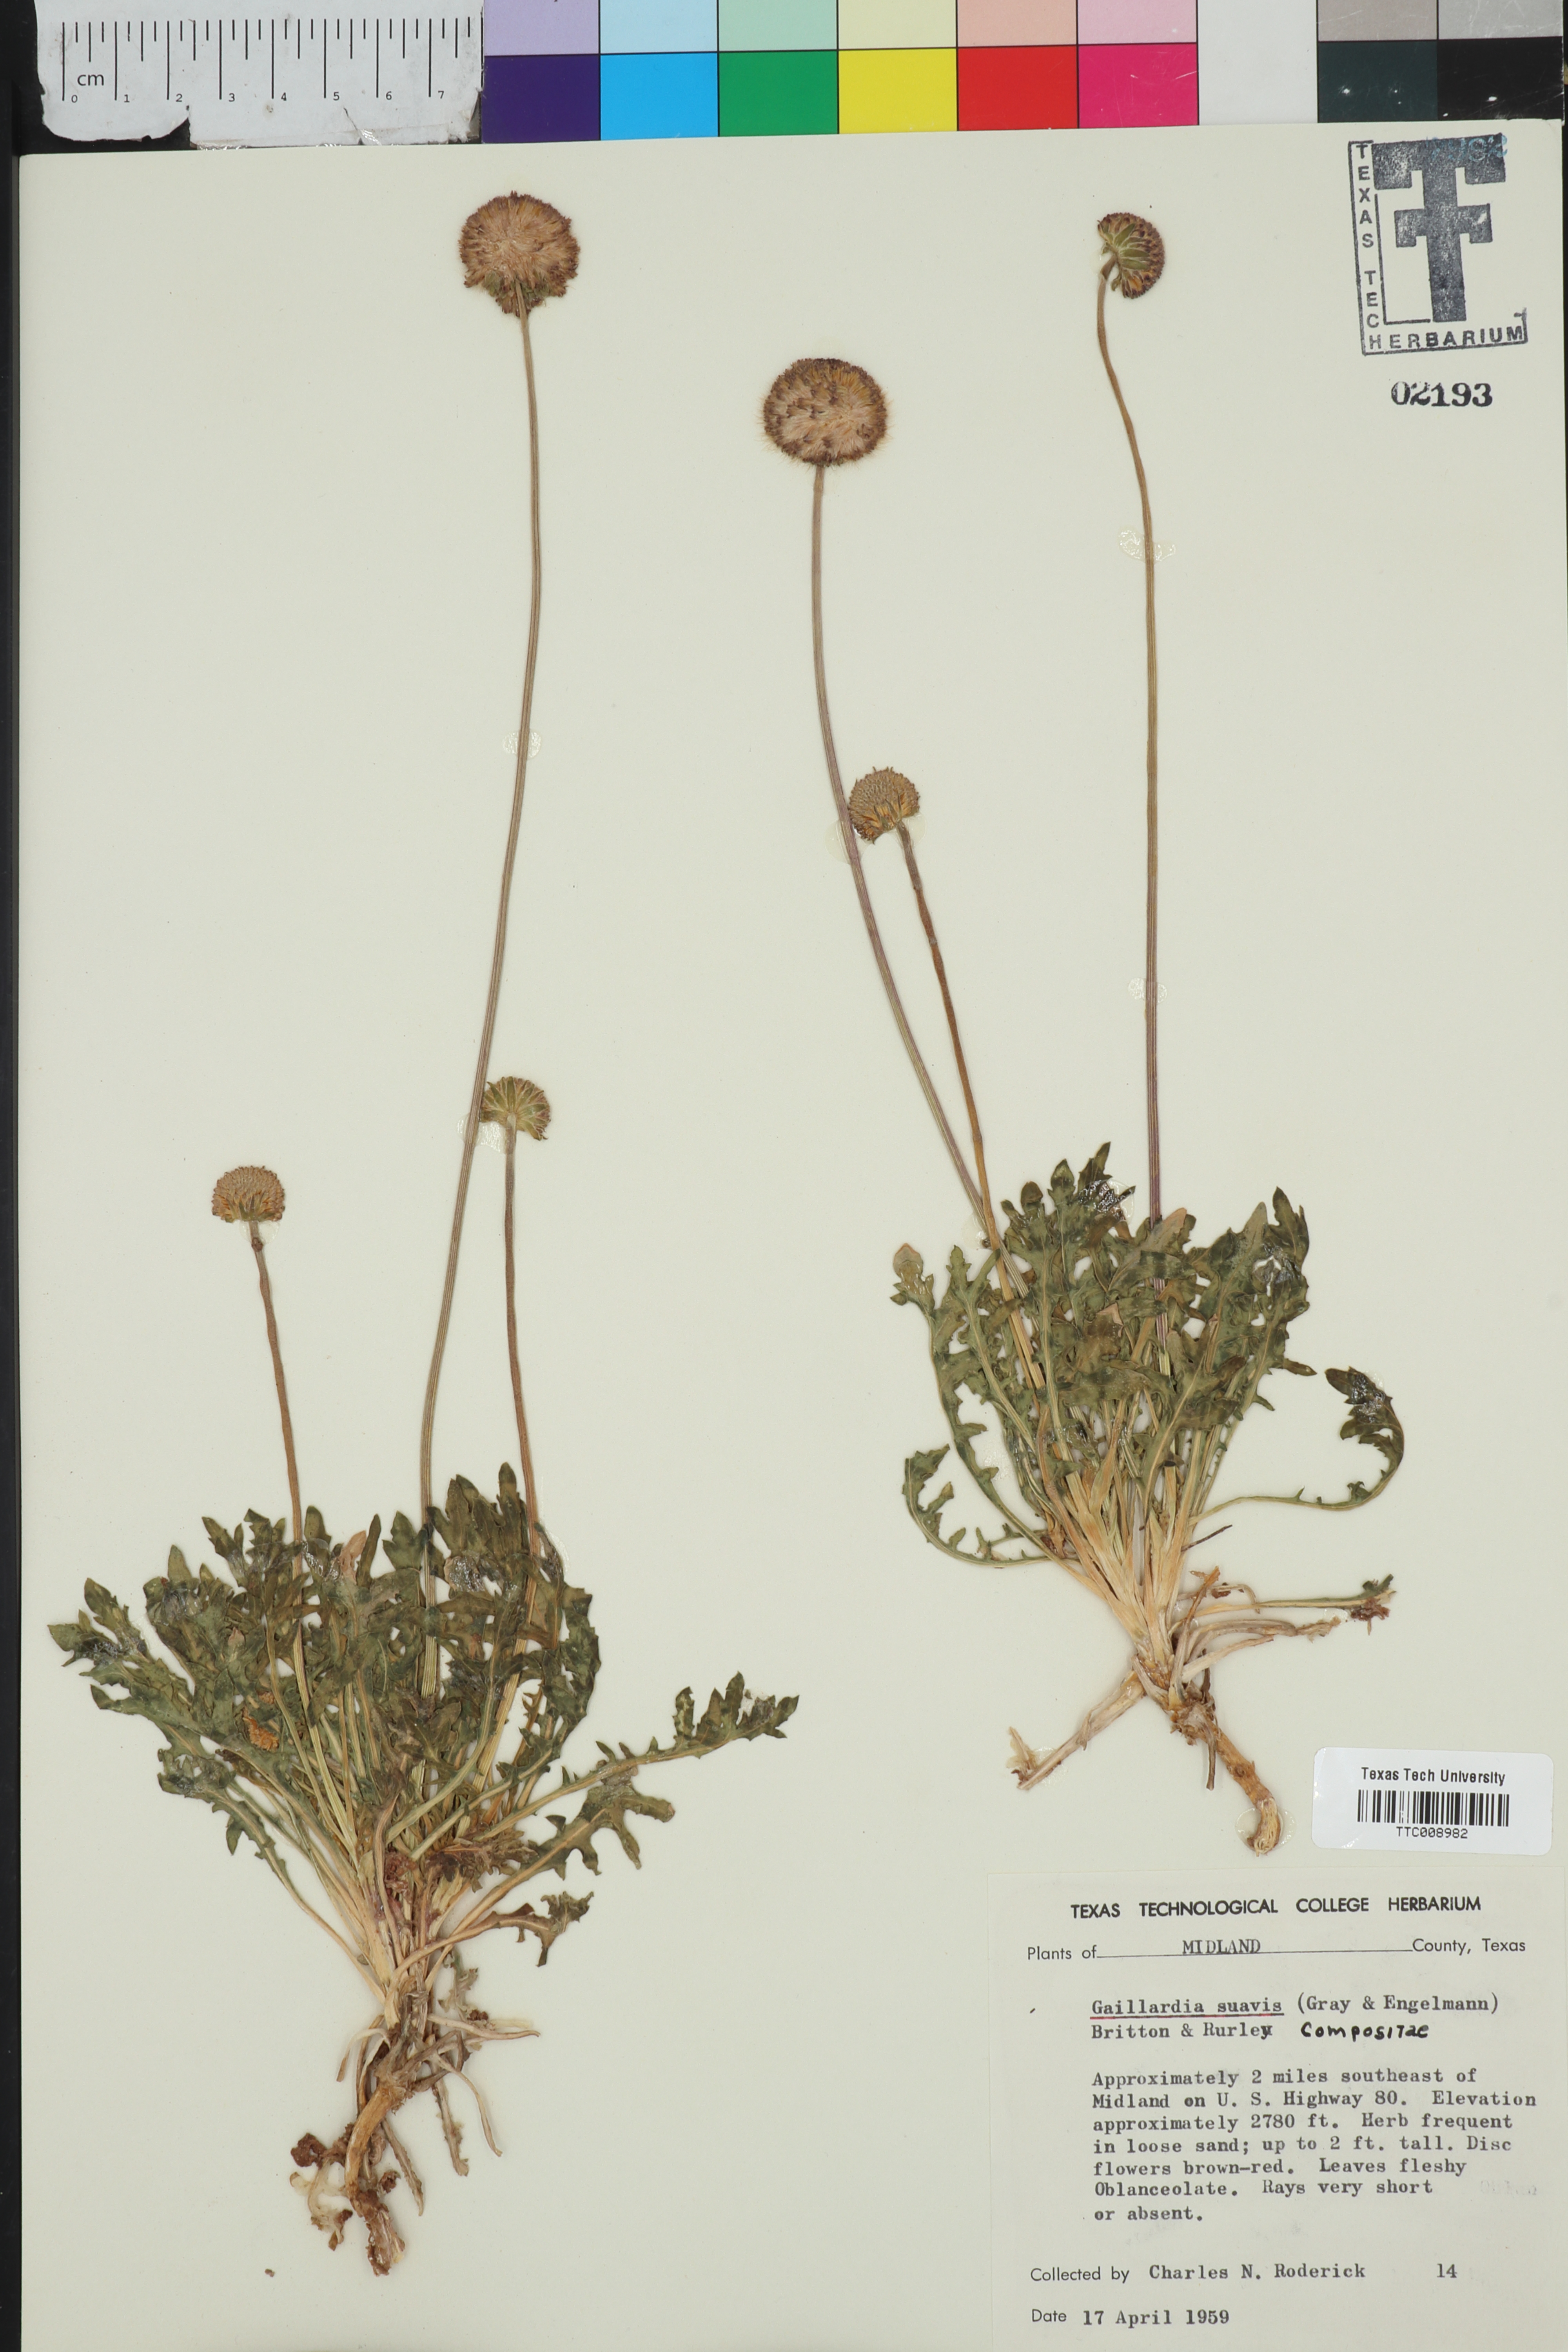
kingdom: Plantae
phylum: Tracheophyta
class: Magnoliopsida
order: Asterales
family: Asteraceae
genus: Gaillardia
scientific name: Gaillardia suavis
